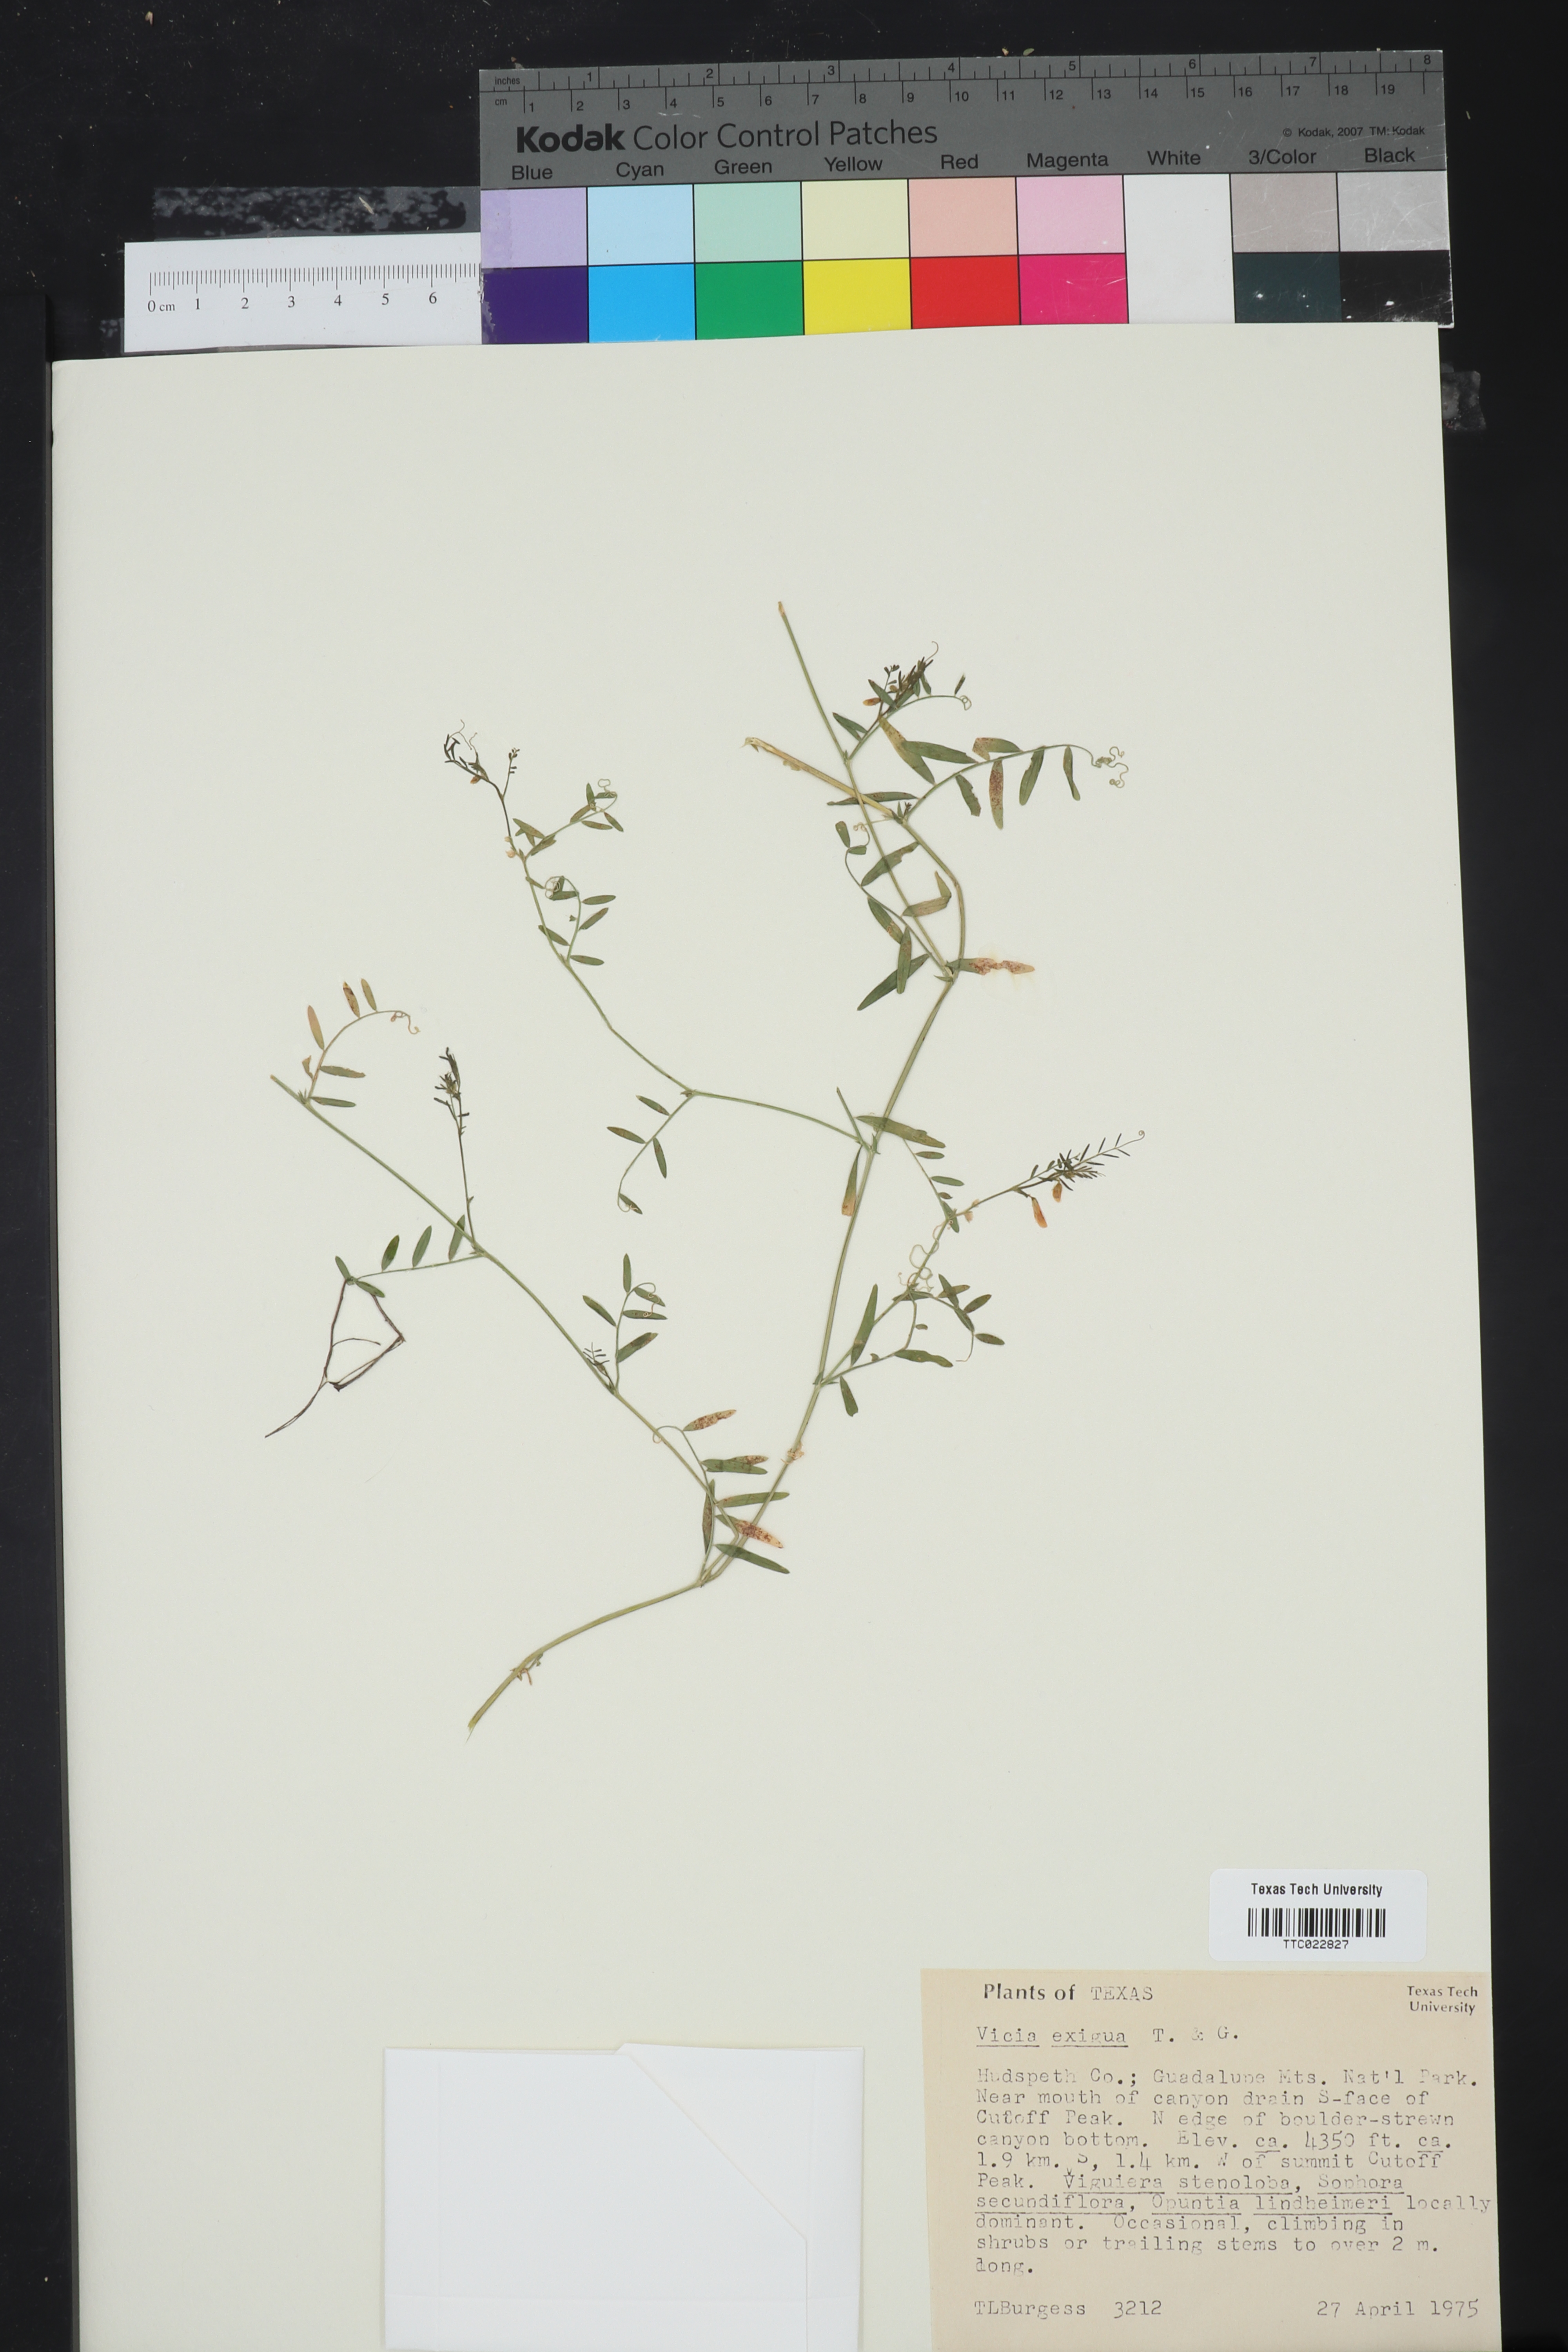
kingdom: Plantae
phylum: Tracheophyta
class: Magnoliopsida
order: Fabales
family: Fabaceae
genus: Vicia
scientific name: Vicia ludoviciana
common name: Louisiana vetch
